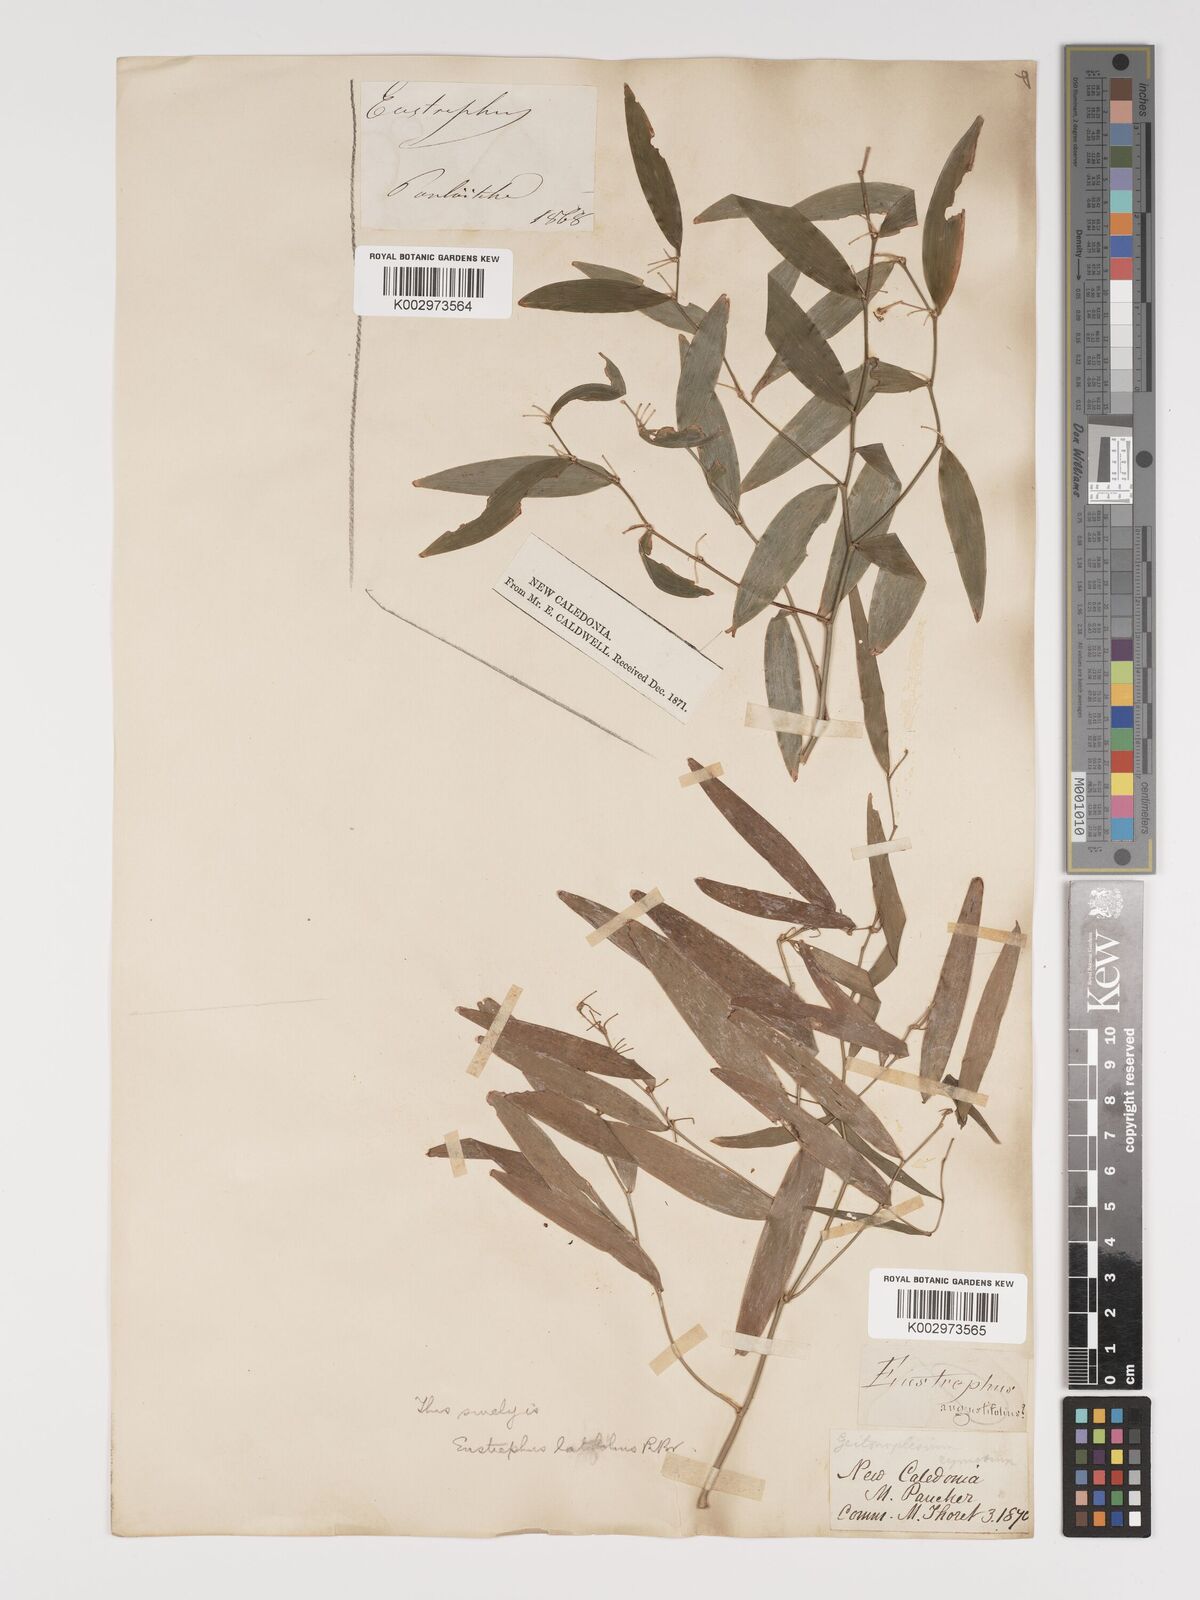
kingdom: Plantae
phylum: Tracheophyta
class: Liliopsida
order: Asparagales
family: Asparagaceae
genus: Eustrephus
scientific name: Eustrephus latifolius
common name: Orangevine
